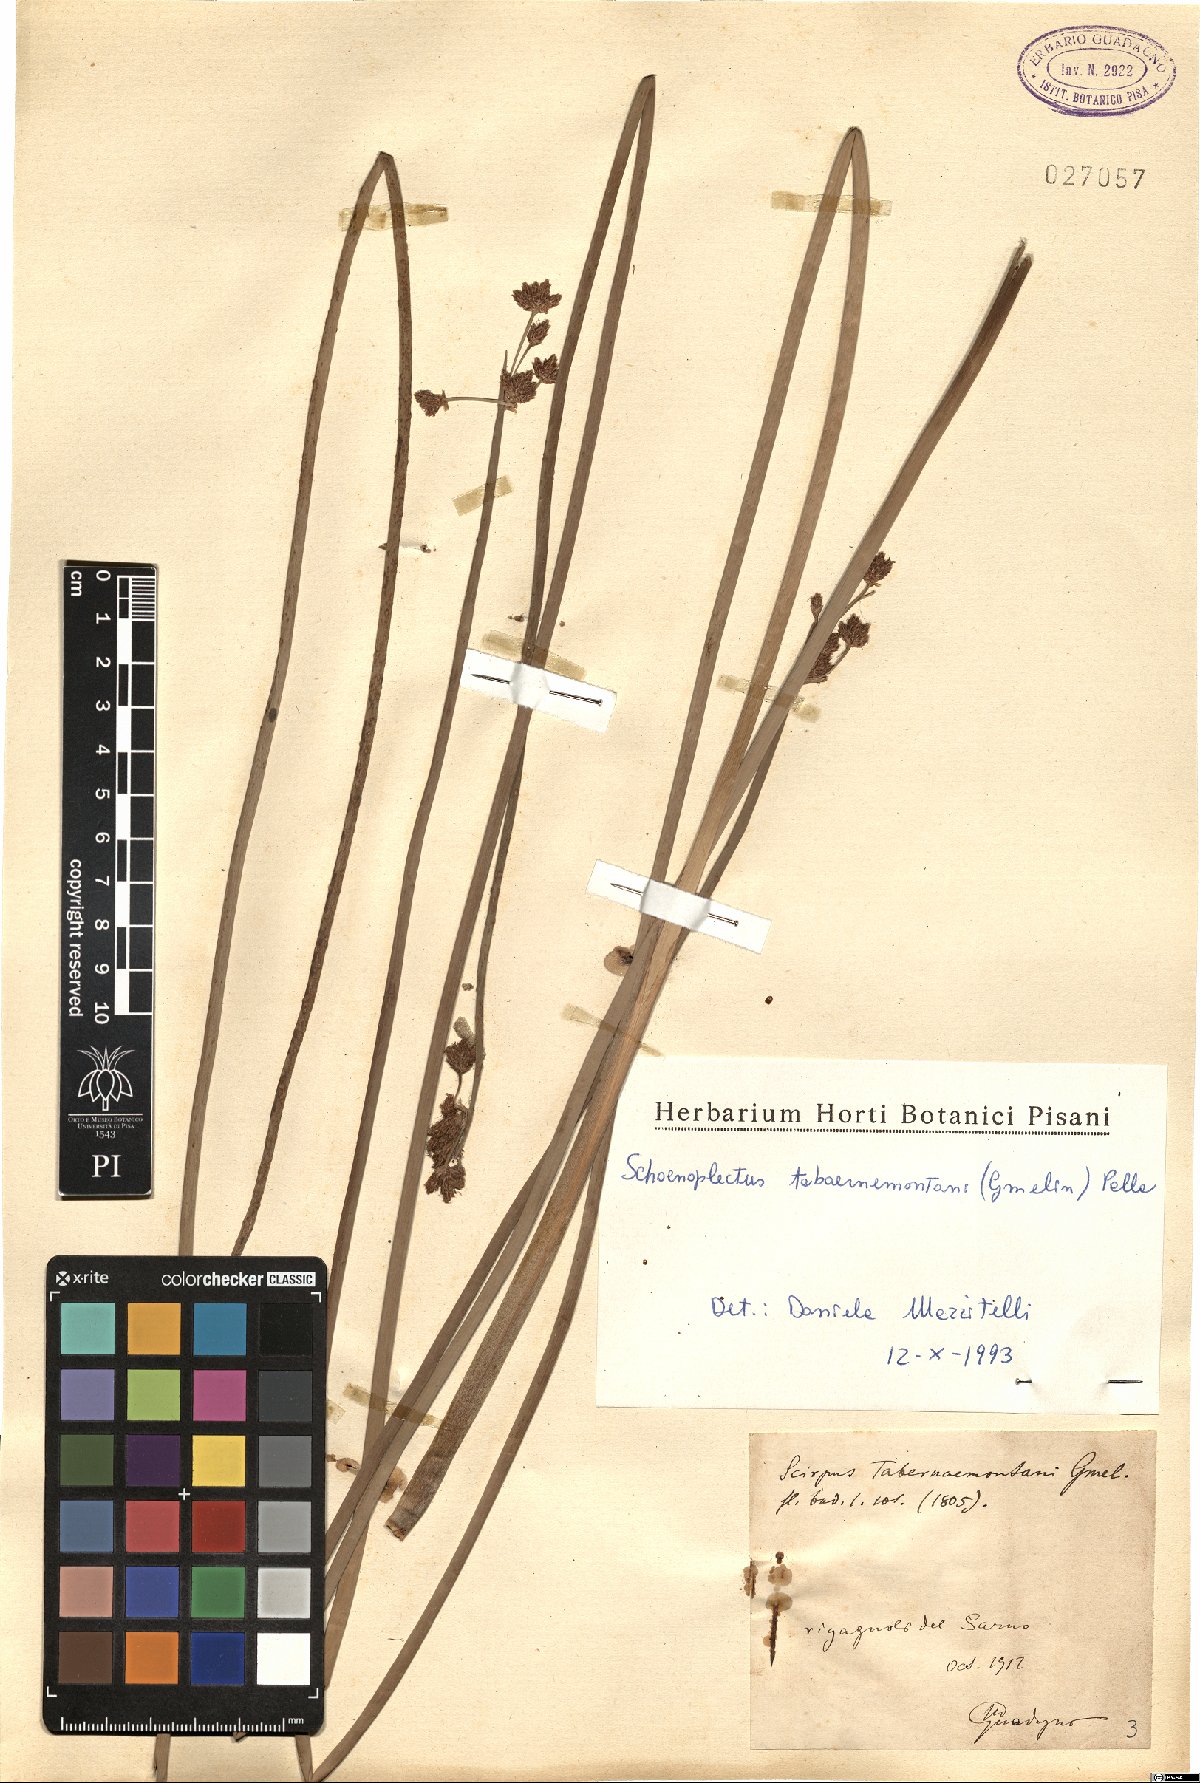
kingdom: Plantae
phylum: Tracheophyta
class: Liliopsida
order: Poales
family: Cyperaceae
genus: Schoenoplectus
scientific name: Schoenoplectus tabernaemontani
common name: Grey club-rush
